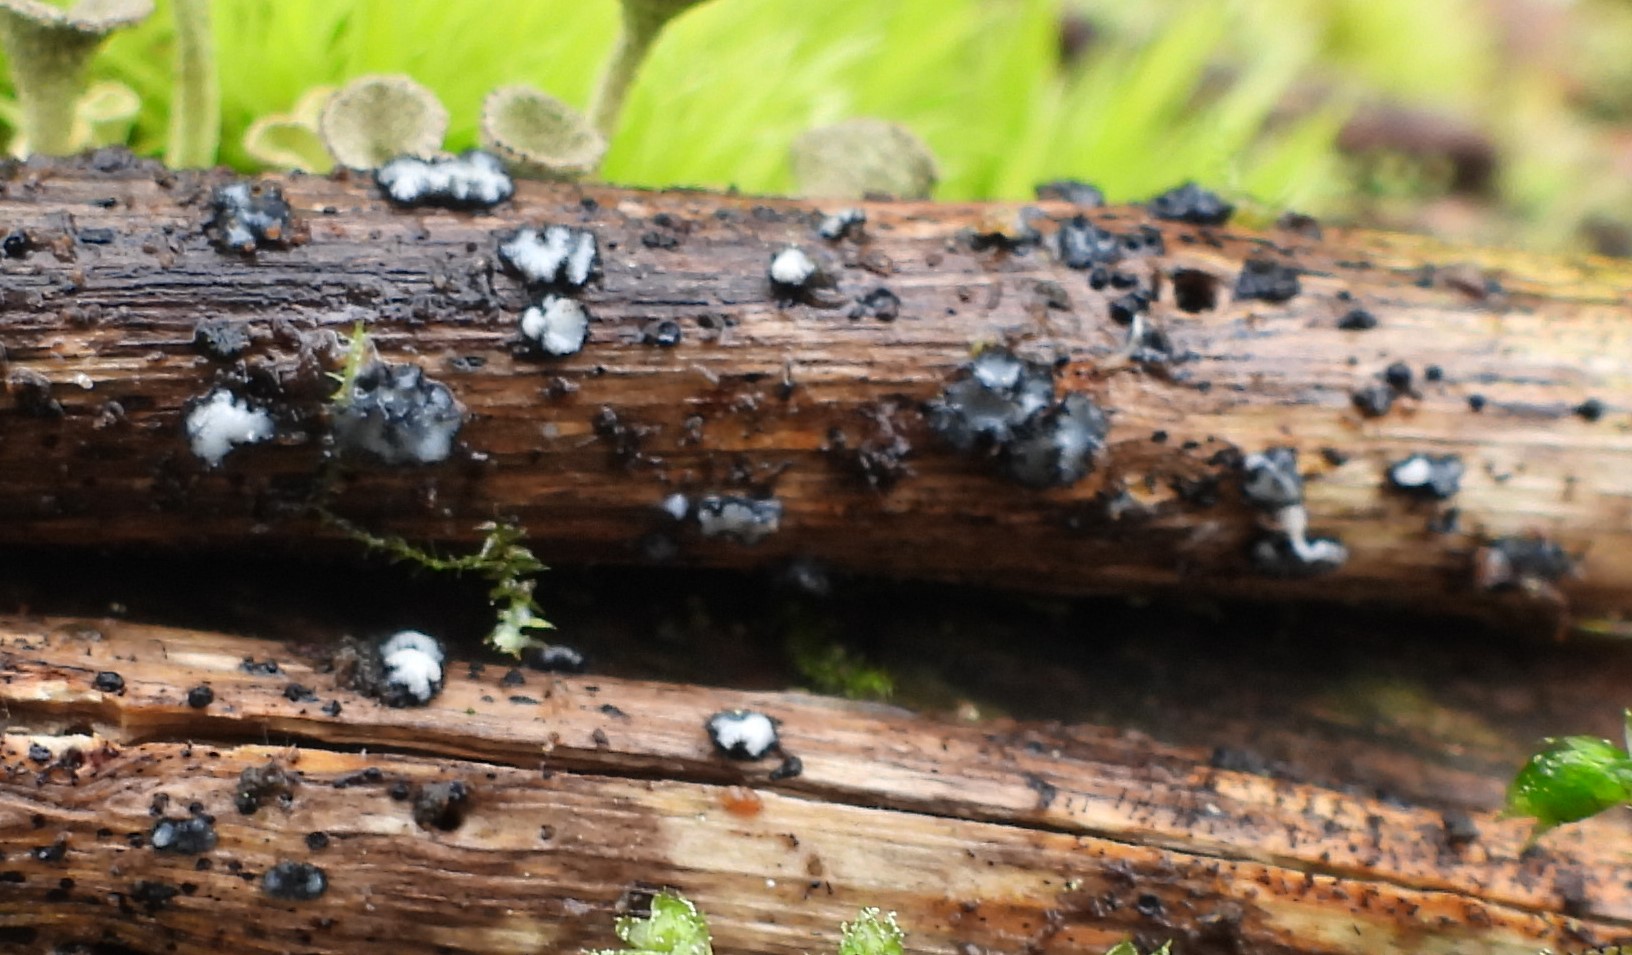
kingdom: Fungi
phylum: Ascomycota
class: Sordariomycetes
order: Chaetosphaeriales
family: Chaetosphaeriaceae
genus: Pseudolachnea
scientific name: Pseudolachnea hispidula
